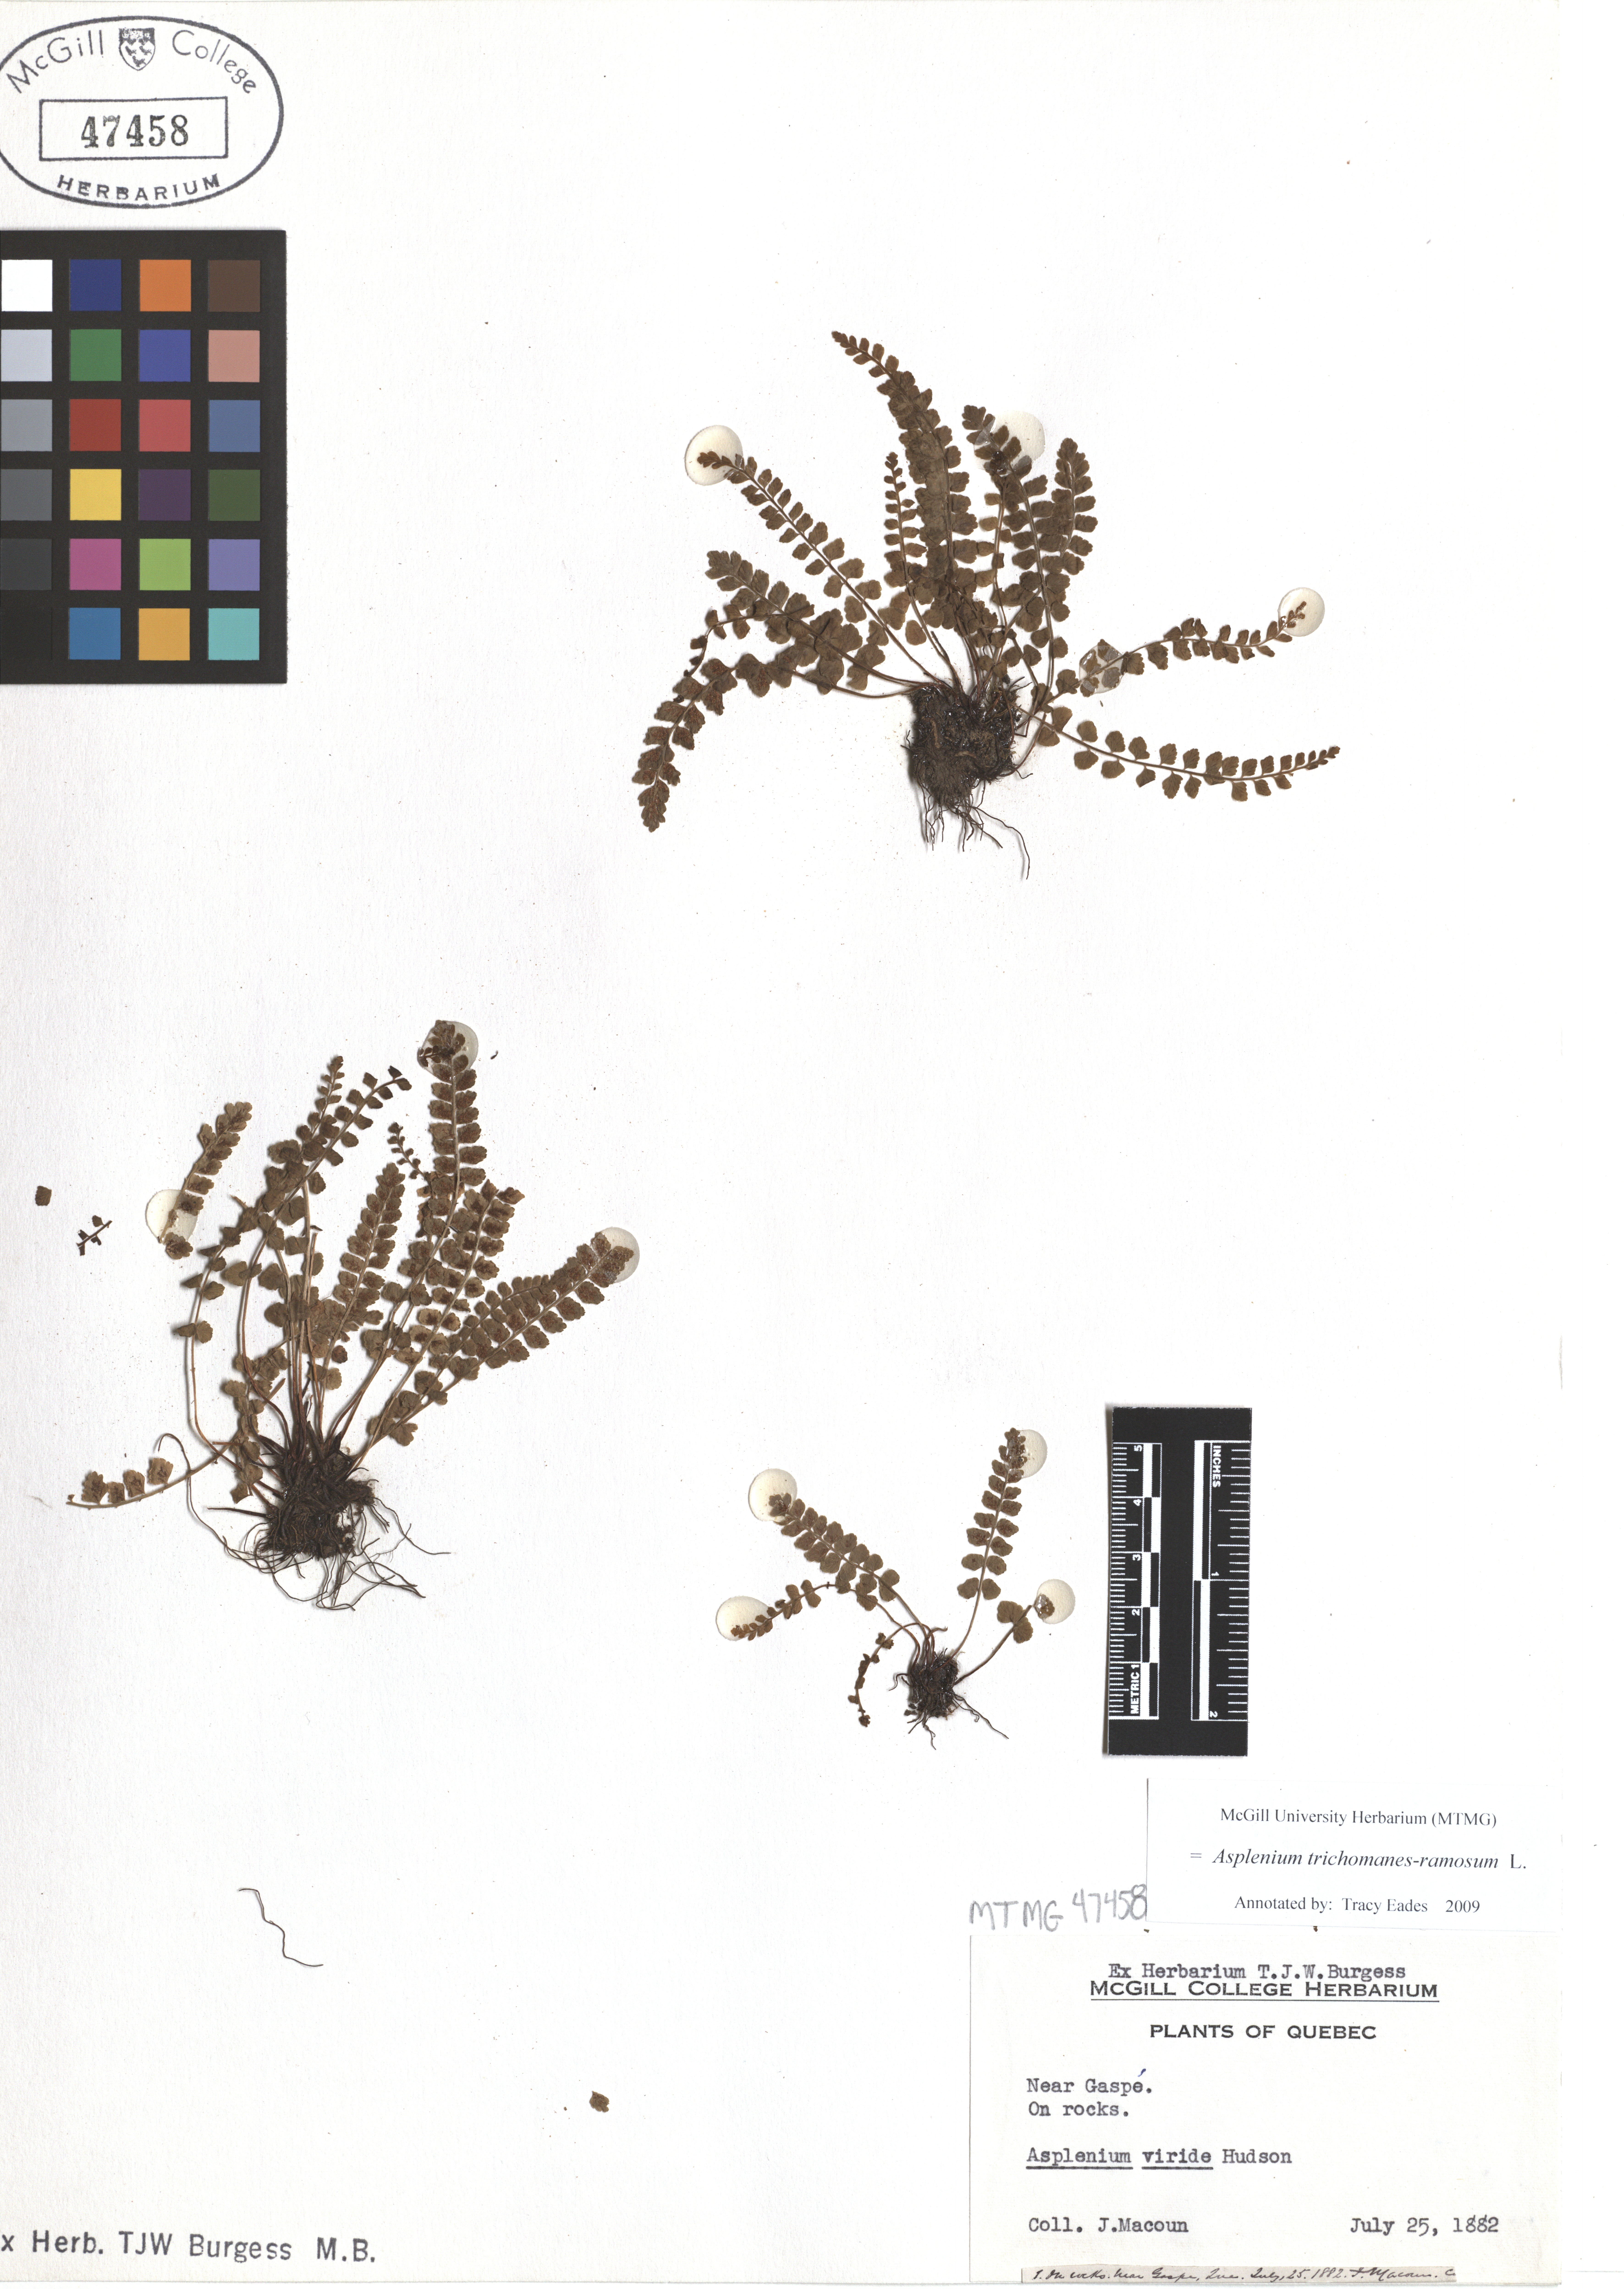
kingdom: Plantae
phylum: Tracheophyta
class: Polypodiopsida
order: Polypodiales
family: Aspleniaceae
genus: Asplenium
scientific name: Asplenium viride
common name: Green spleenwort
